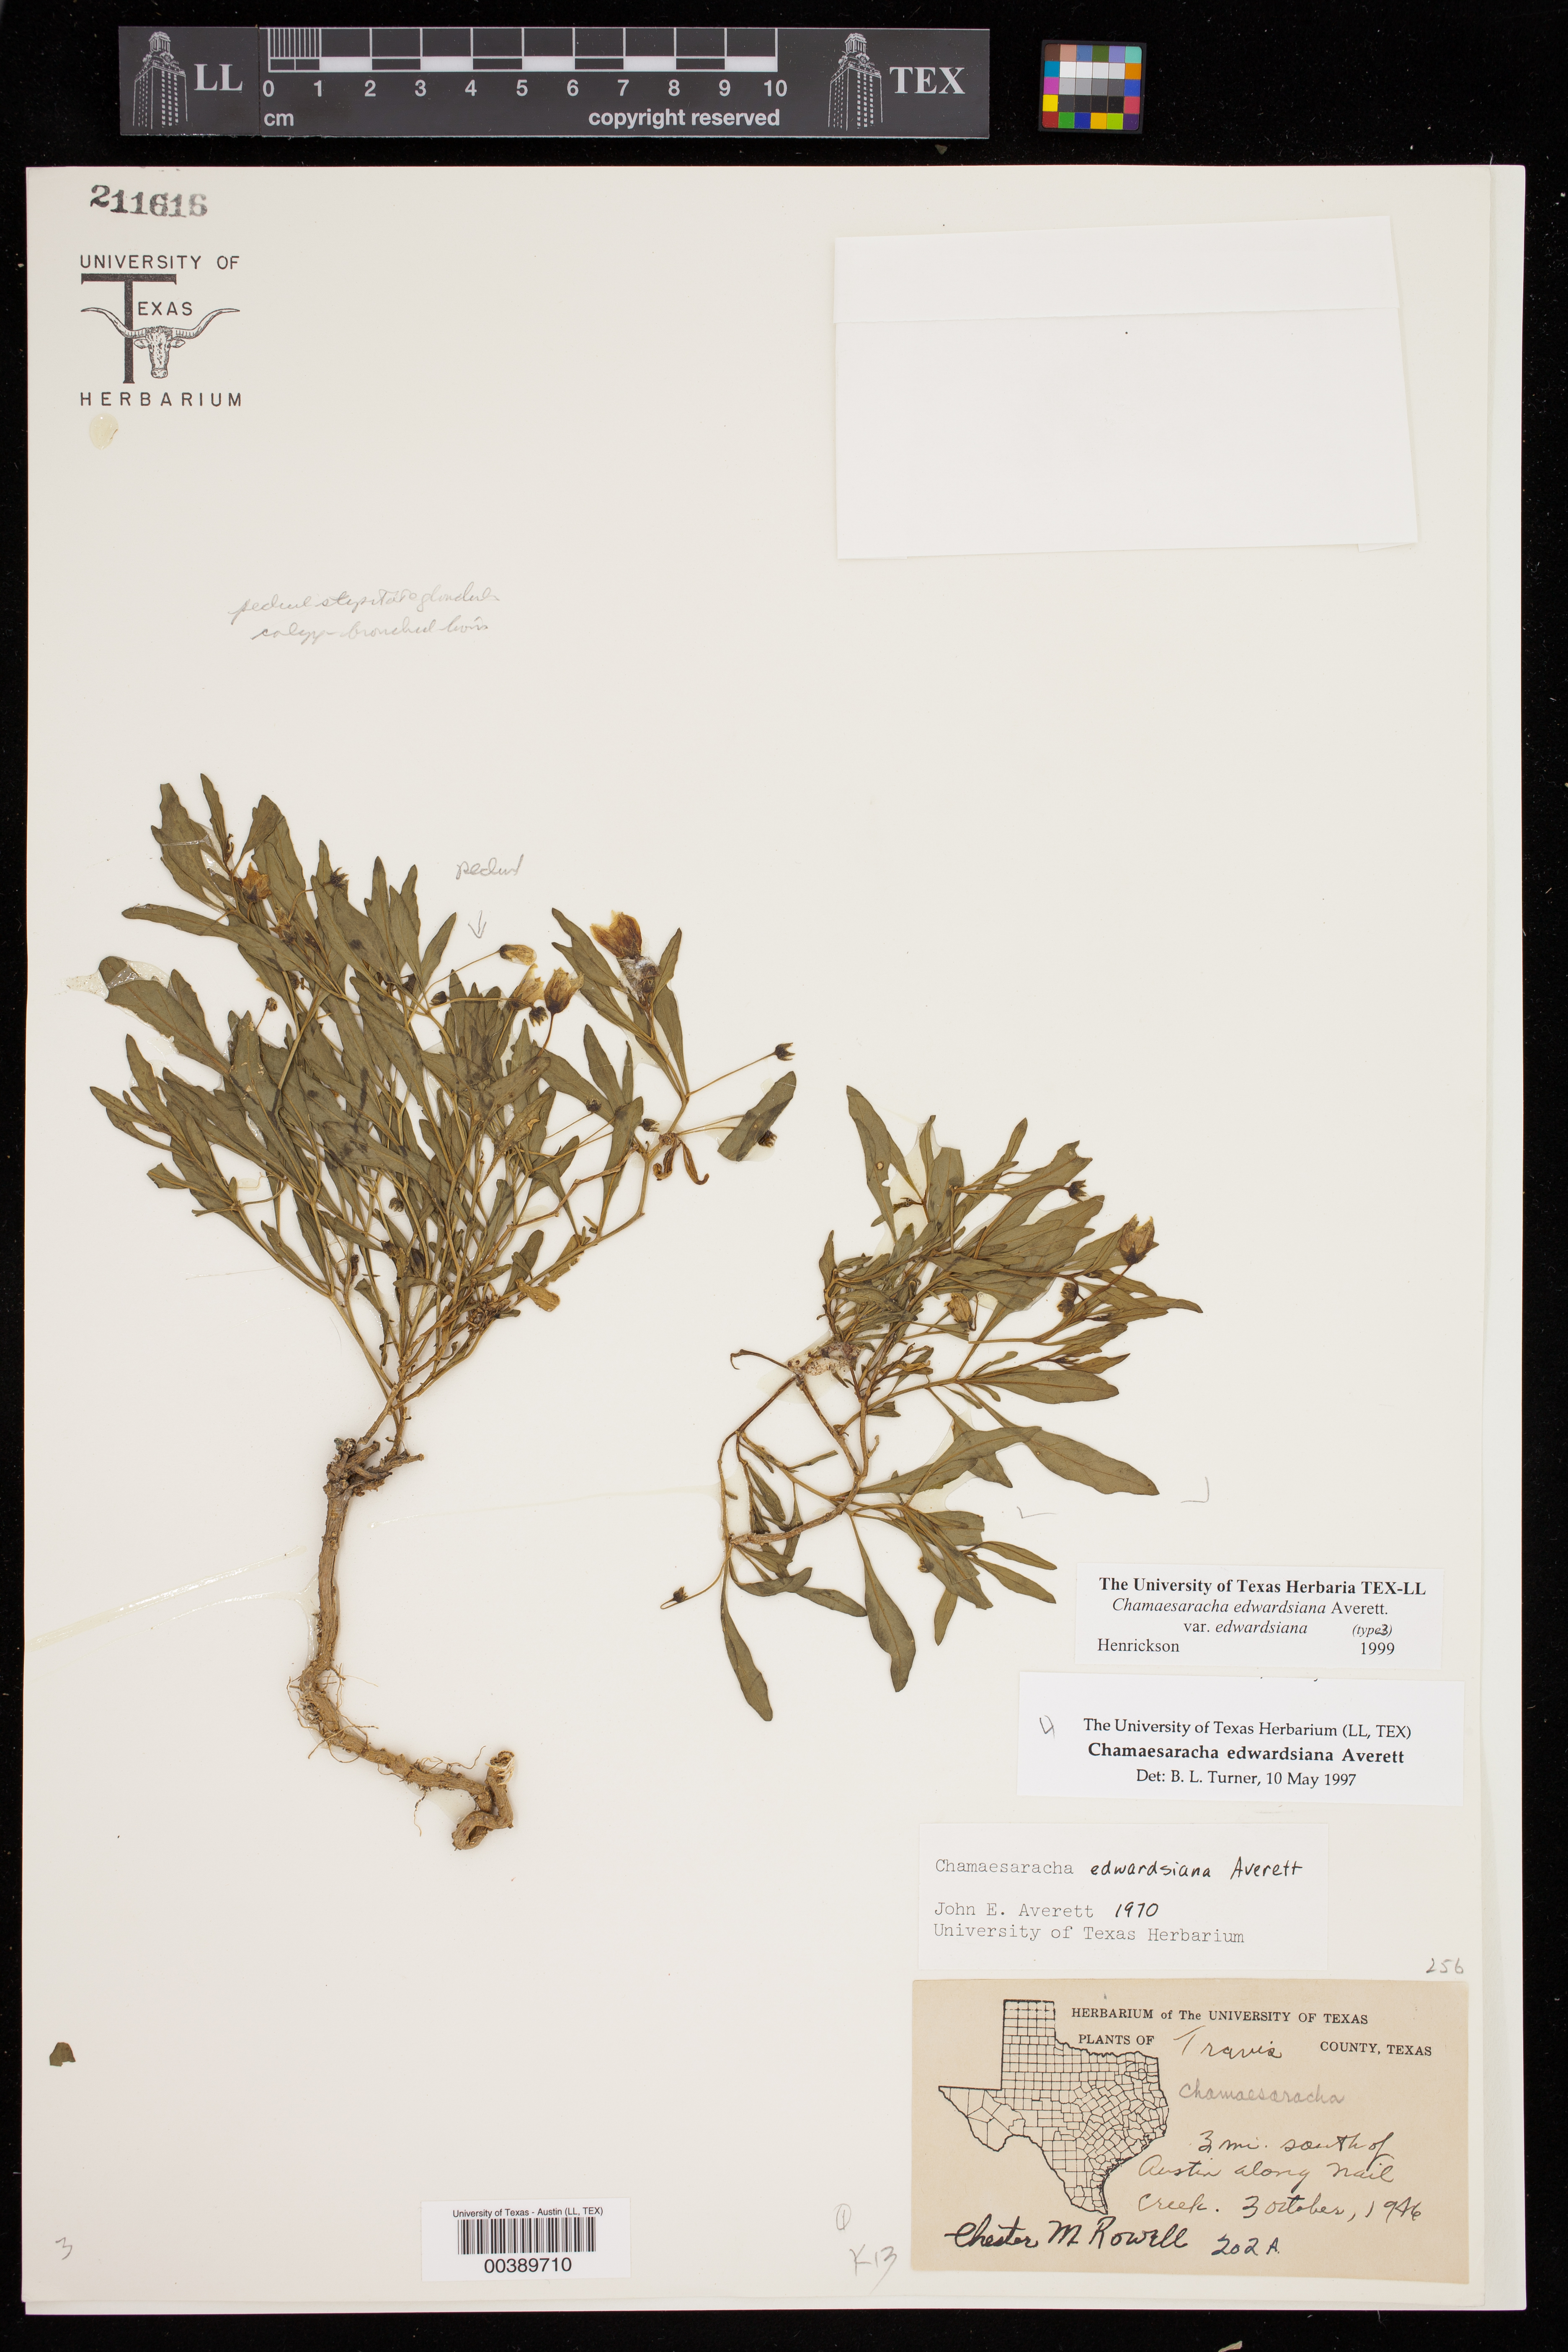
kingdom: Plantae
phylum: Tracheophyta
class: Magnoliopsida
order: Solanales
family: Solanaceae
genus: Chamaesaracha
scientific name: Chamaesaracha
